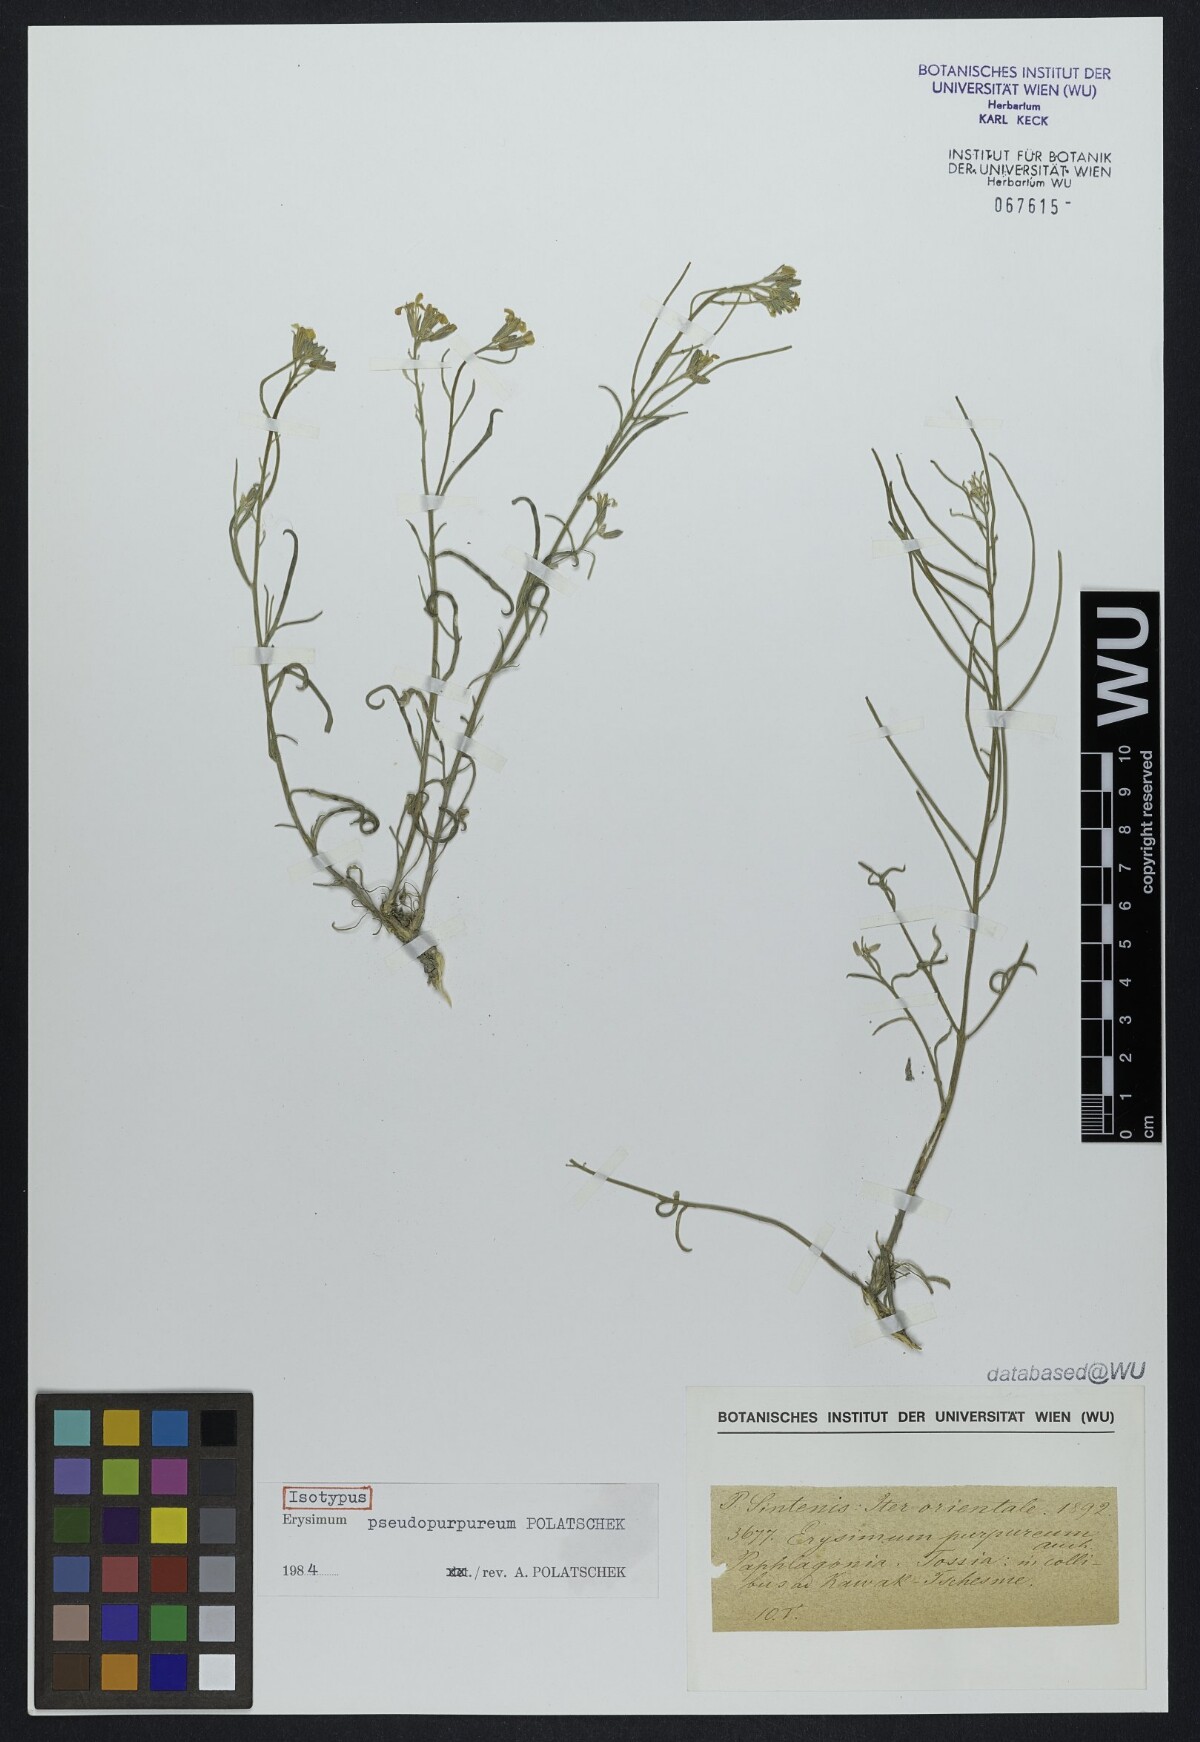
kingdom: Plantae
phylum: Tracheophyta
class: Magnoliopsida
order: Brassicales
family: Brassicaceae
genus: Erysimum
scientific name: Erysimum pseudopurpureum
